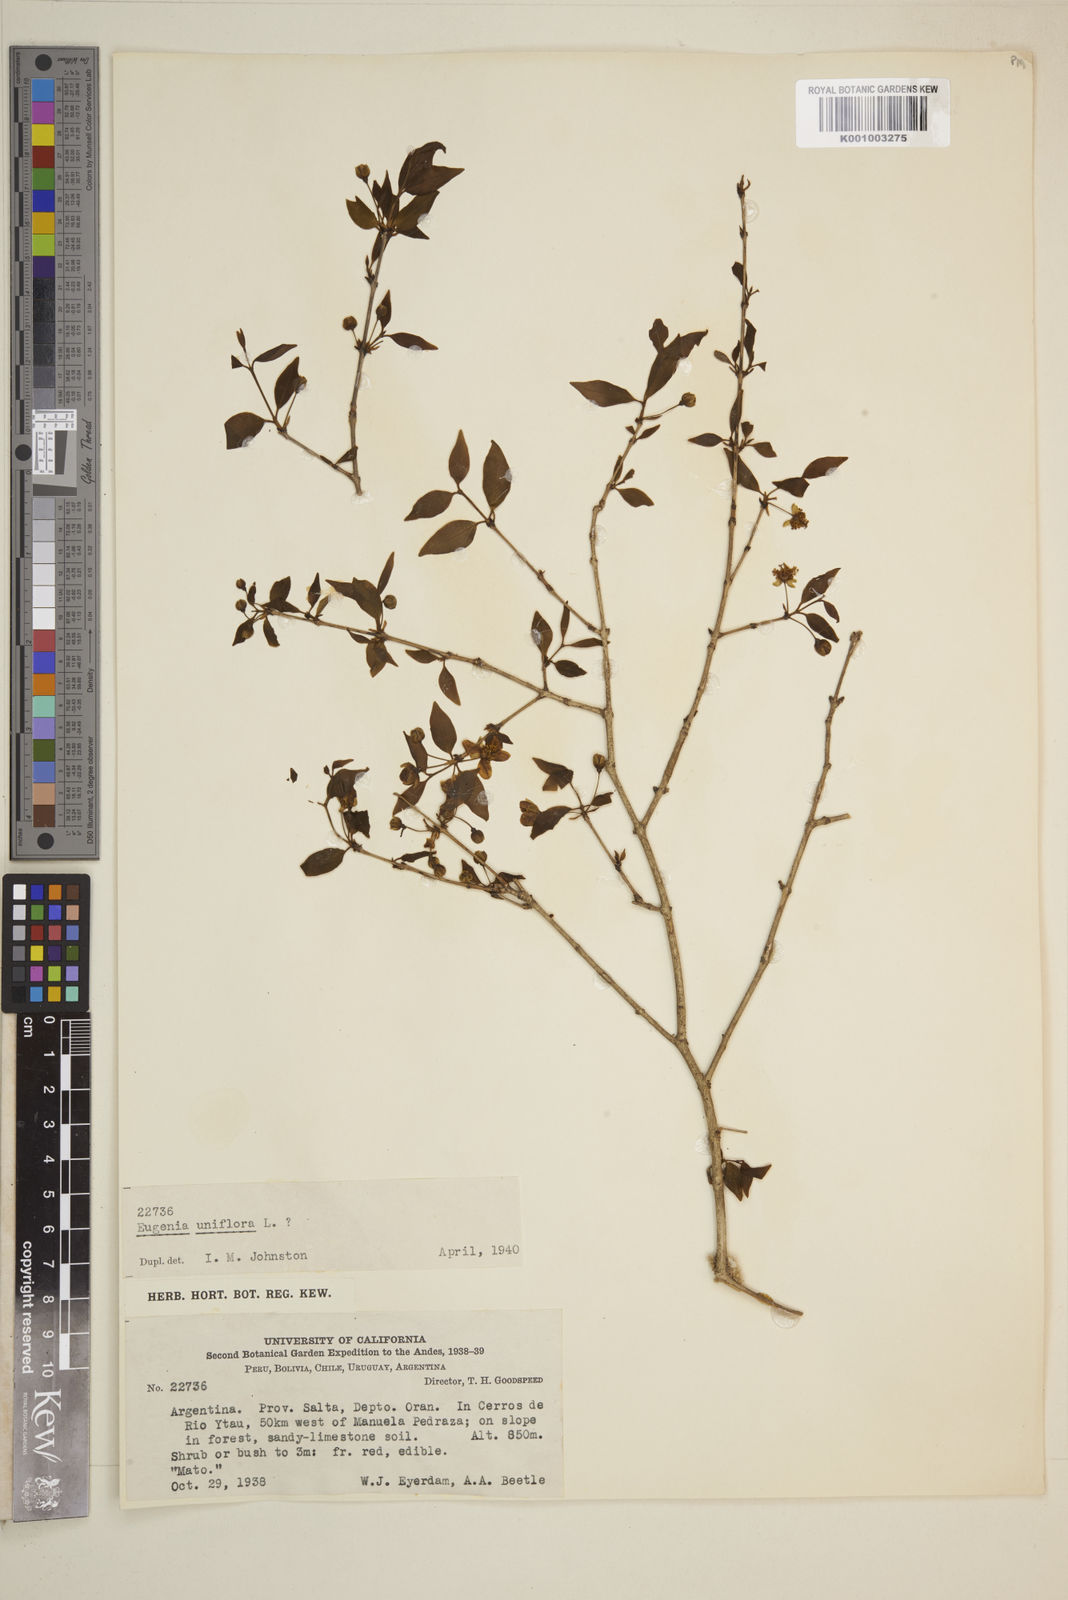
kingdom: Plantae
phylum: Tracheophyta
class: Magnoliopsida
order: Myrtales
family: Myrtaceae
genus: Eugenia
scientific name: Eugenia uniflora
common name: Surinam cherry
